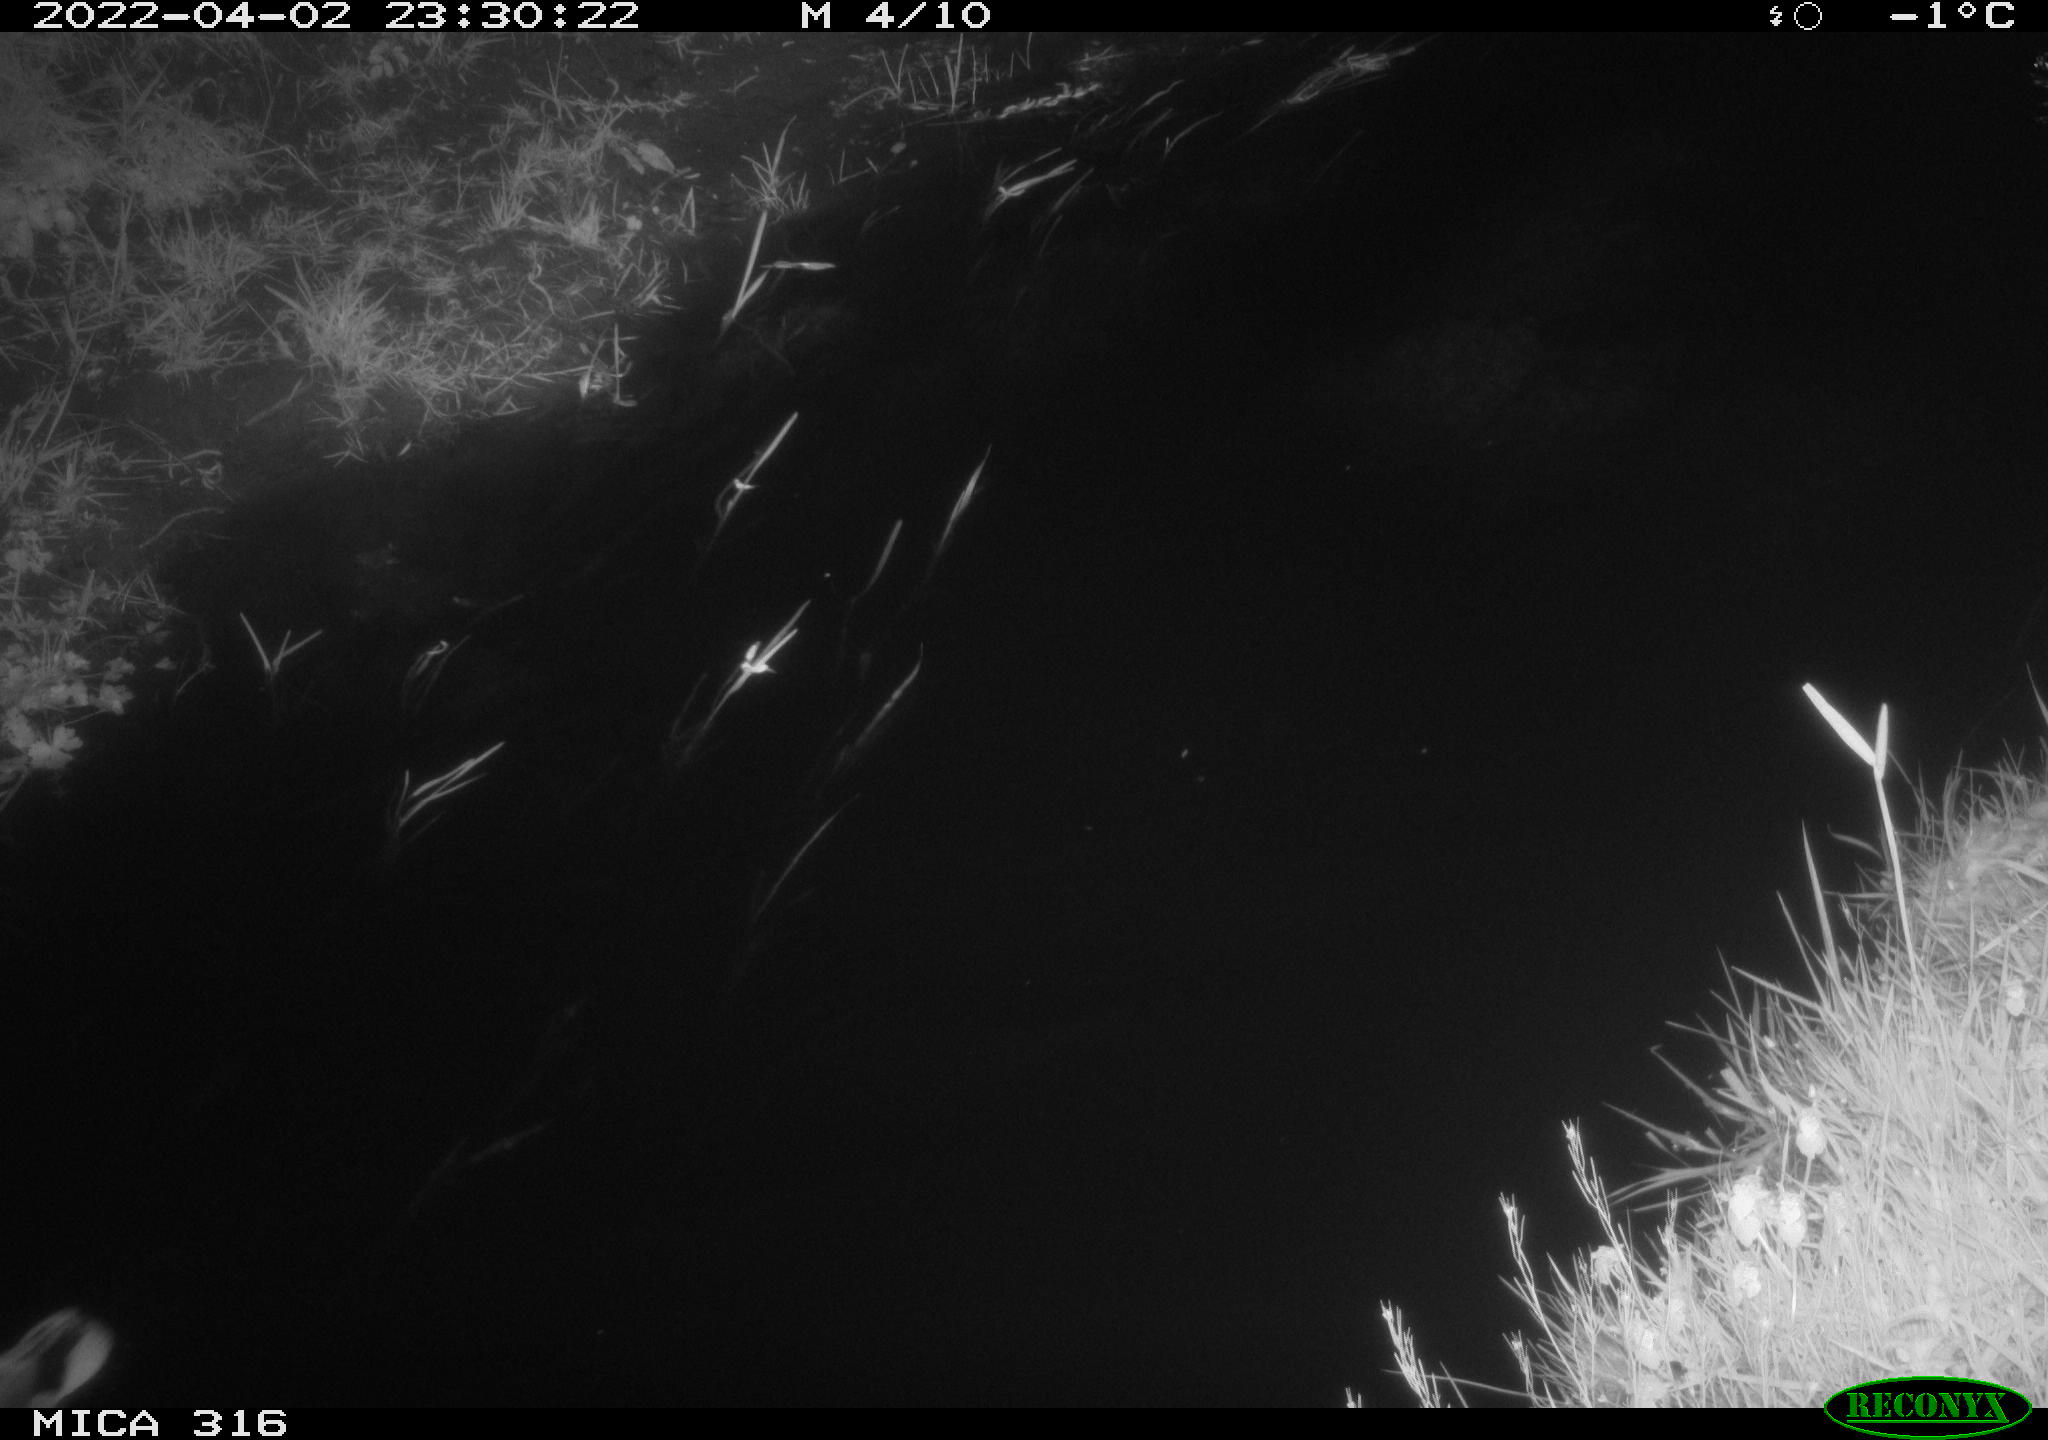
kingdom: Animalia
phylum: Chordata
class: Aves
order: Anseriformes
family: Anatidae
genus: Anas
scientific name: Anas platyrhynchos
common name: Mallard
